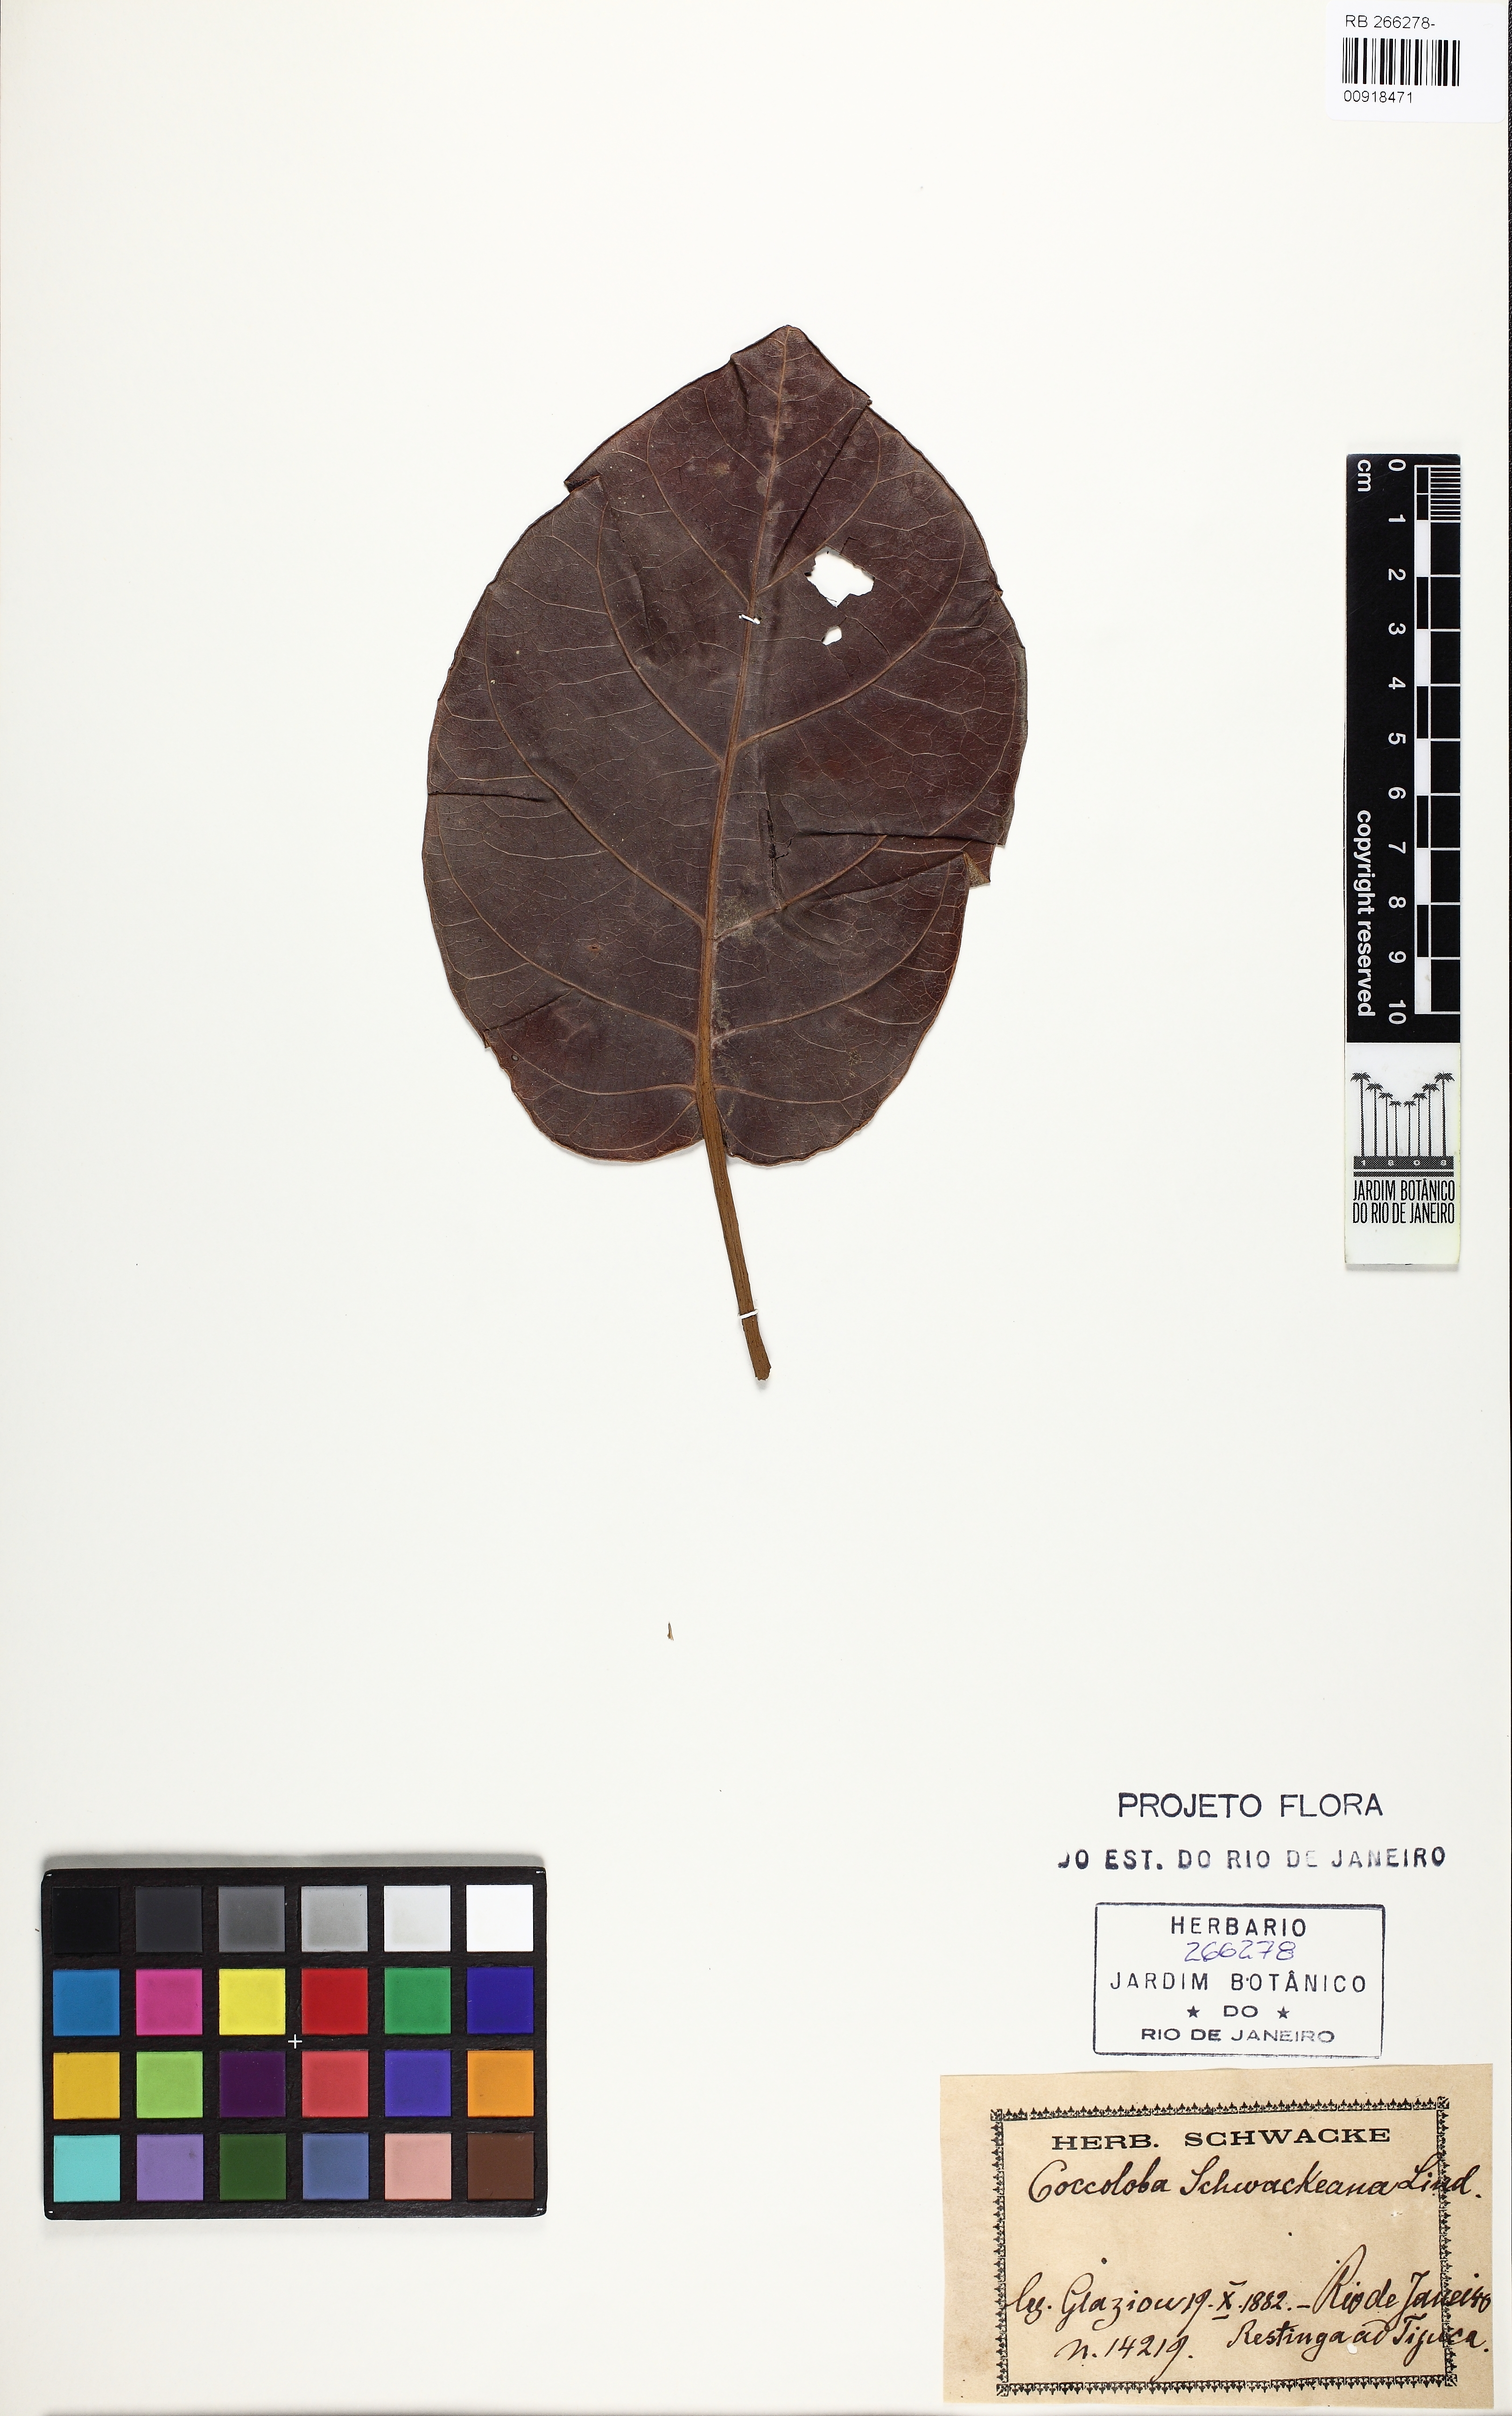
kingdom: Plantae
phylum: Tracheophyta
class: Magnoliopsida
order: Caryophyllales
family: Polygonaceae
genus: Coccoloba
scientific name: Coccoloba schwackeana
